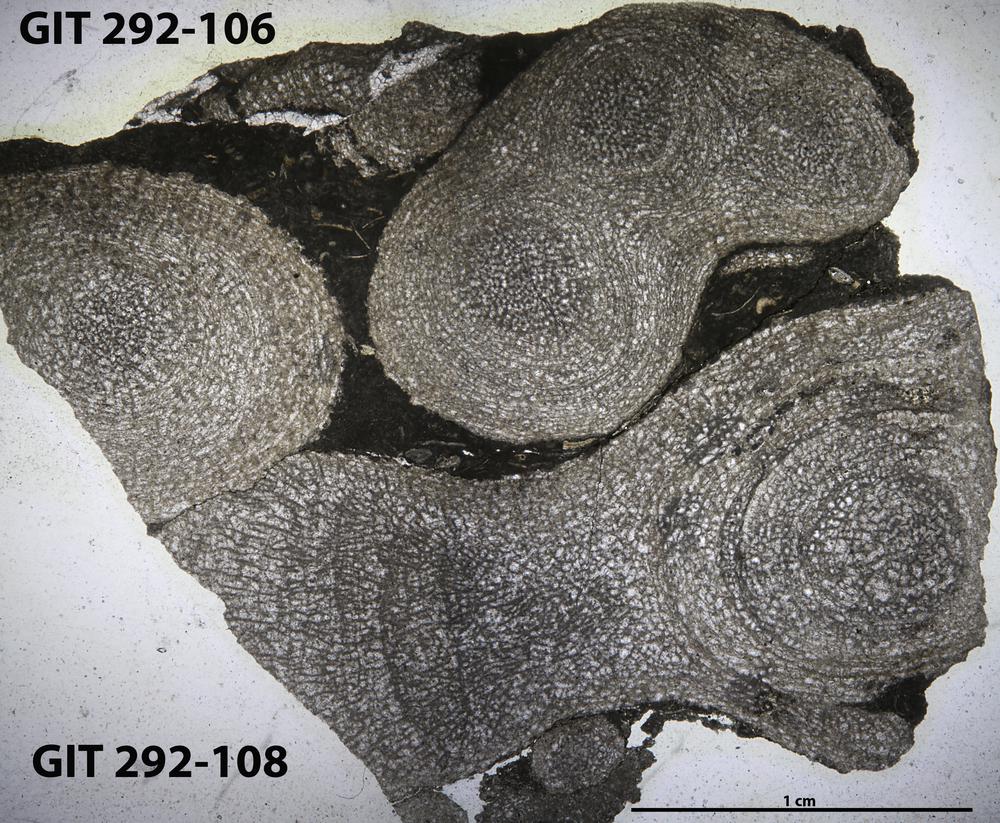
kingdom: Animalia
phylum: Porifera
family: Pseudolabechiidae
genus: Vikingia
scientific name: Vikingia
